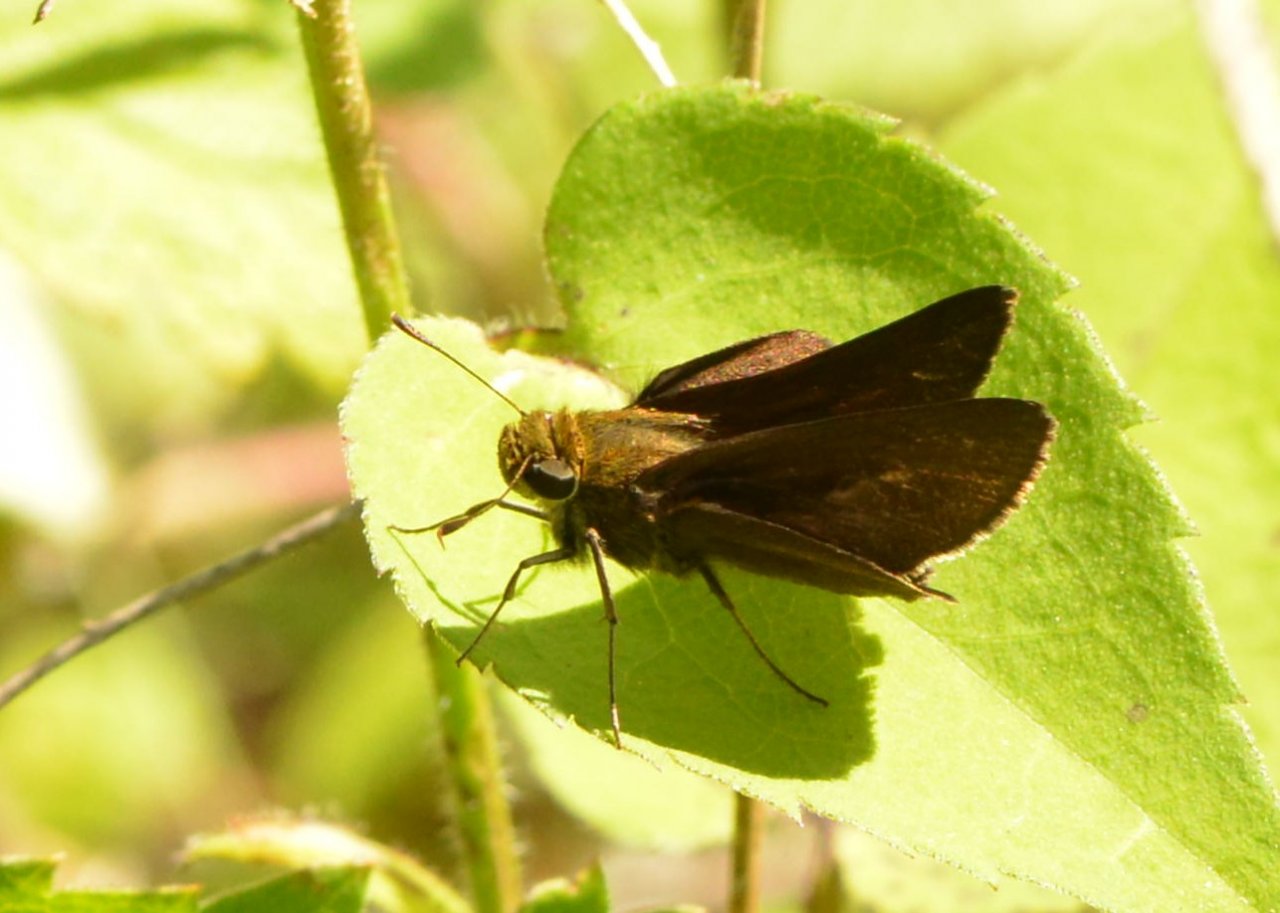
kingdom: Animalia
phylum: Arthropoda
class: Insecta
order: Lepidoptera
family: Hesperiidae
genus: Polites
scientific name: Polites egeremet
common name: Northern Broken-Dash
